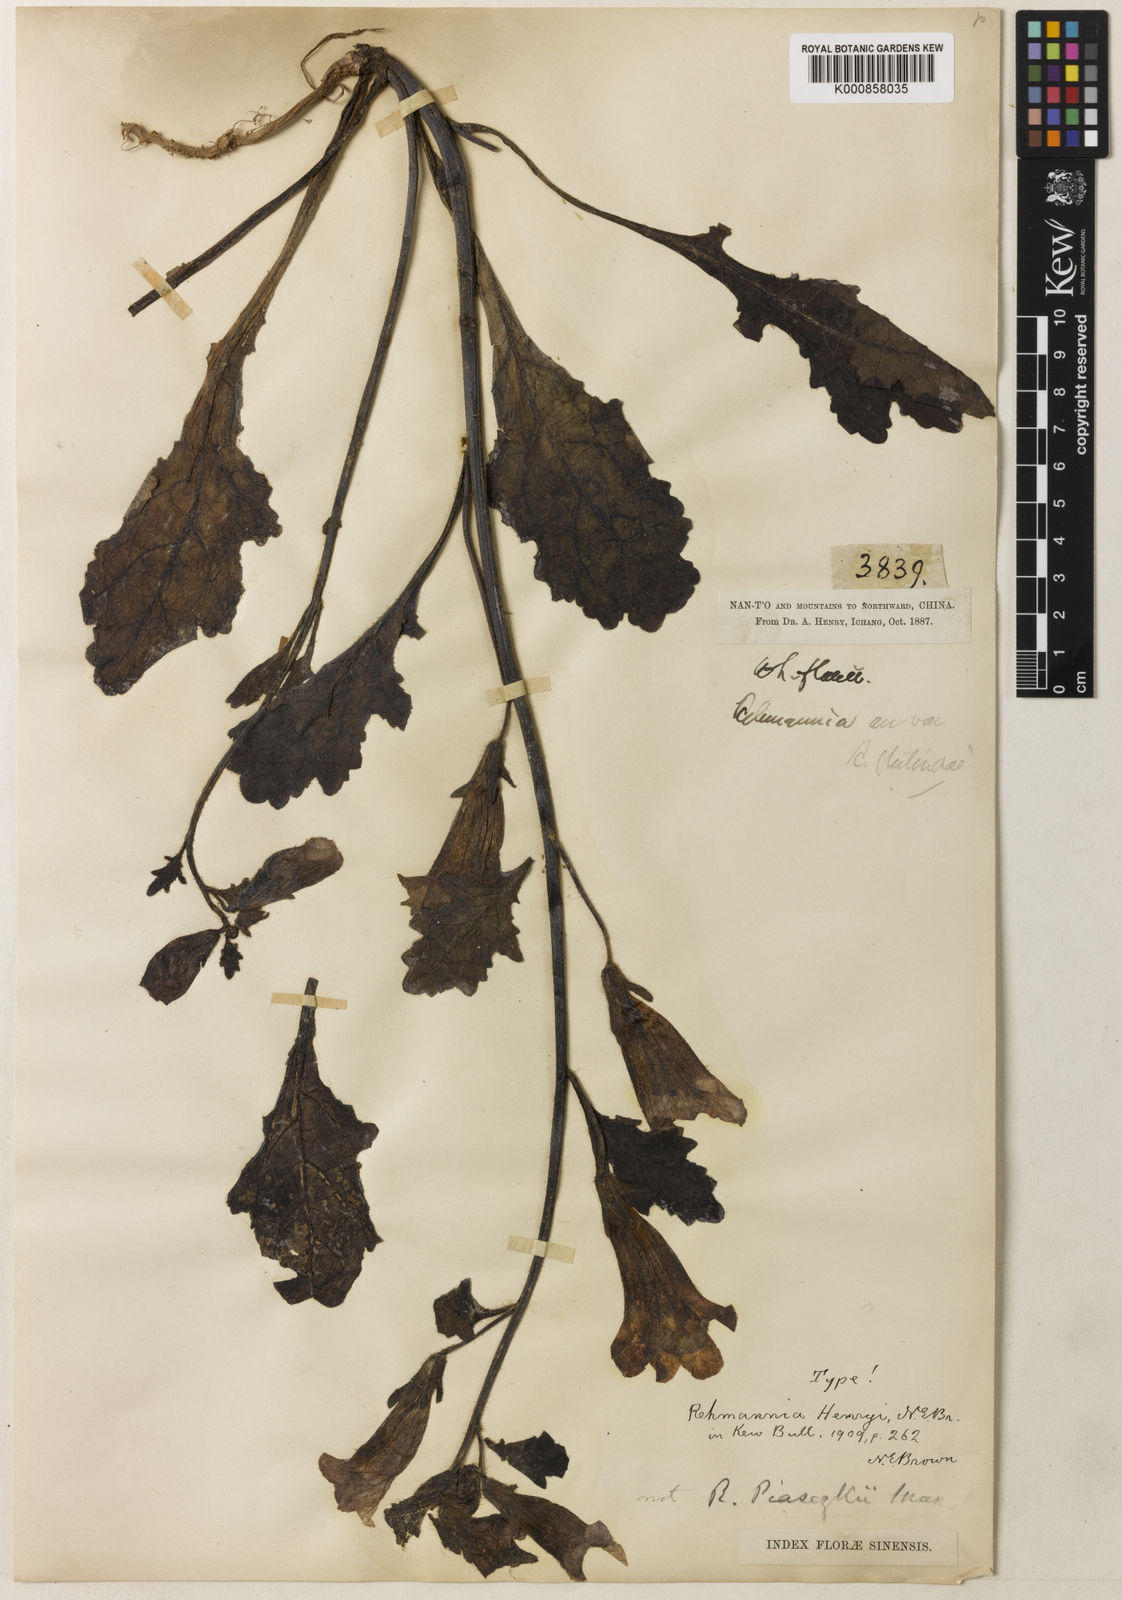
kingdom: Plantae
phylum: Tracheophyta
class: Magnoliopsida
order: Lamiales
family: Rehmanniaceae
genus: Rehmannia
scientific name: Rehmannia henryi
